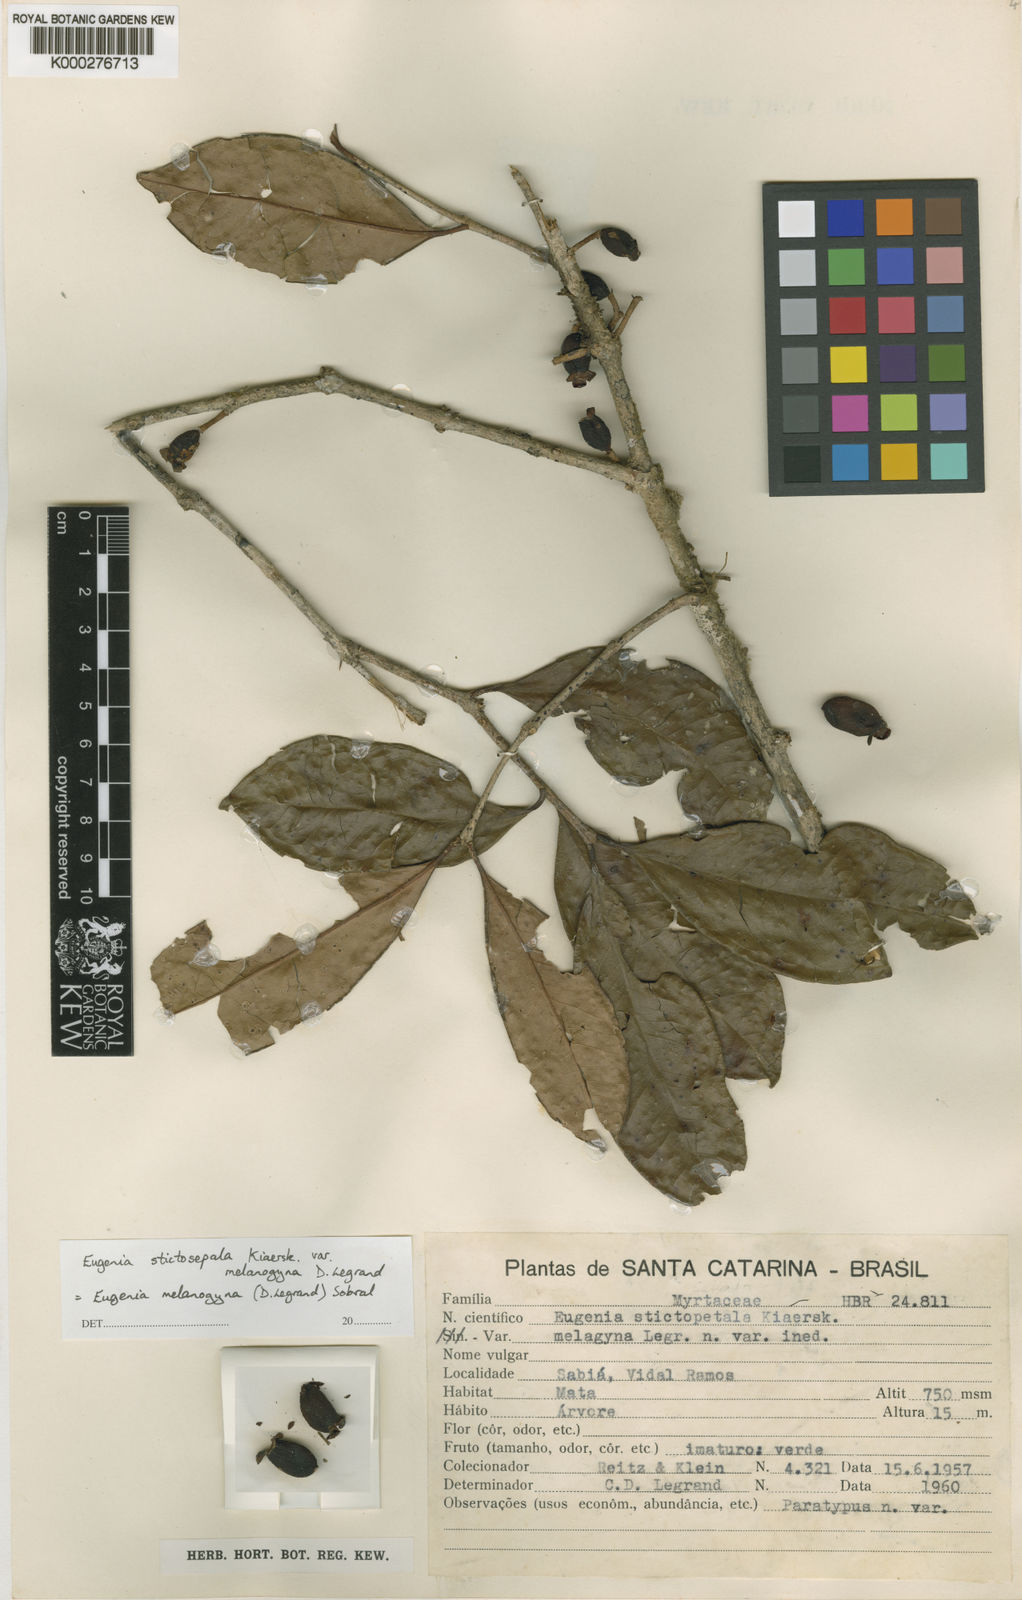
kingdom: Plantae
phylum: Tracheophyta
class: Magnoliopsida
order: Myrtales
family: Myrtaceae
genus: Eugenia
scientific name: Eugenia melanogyna
